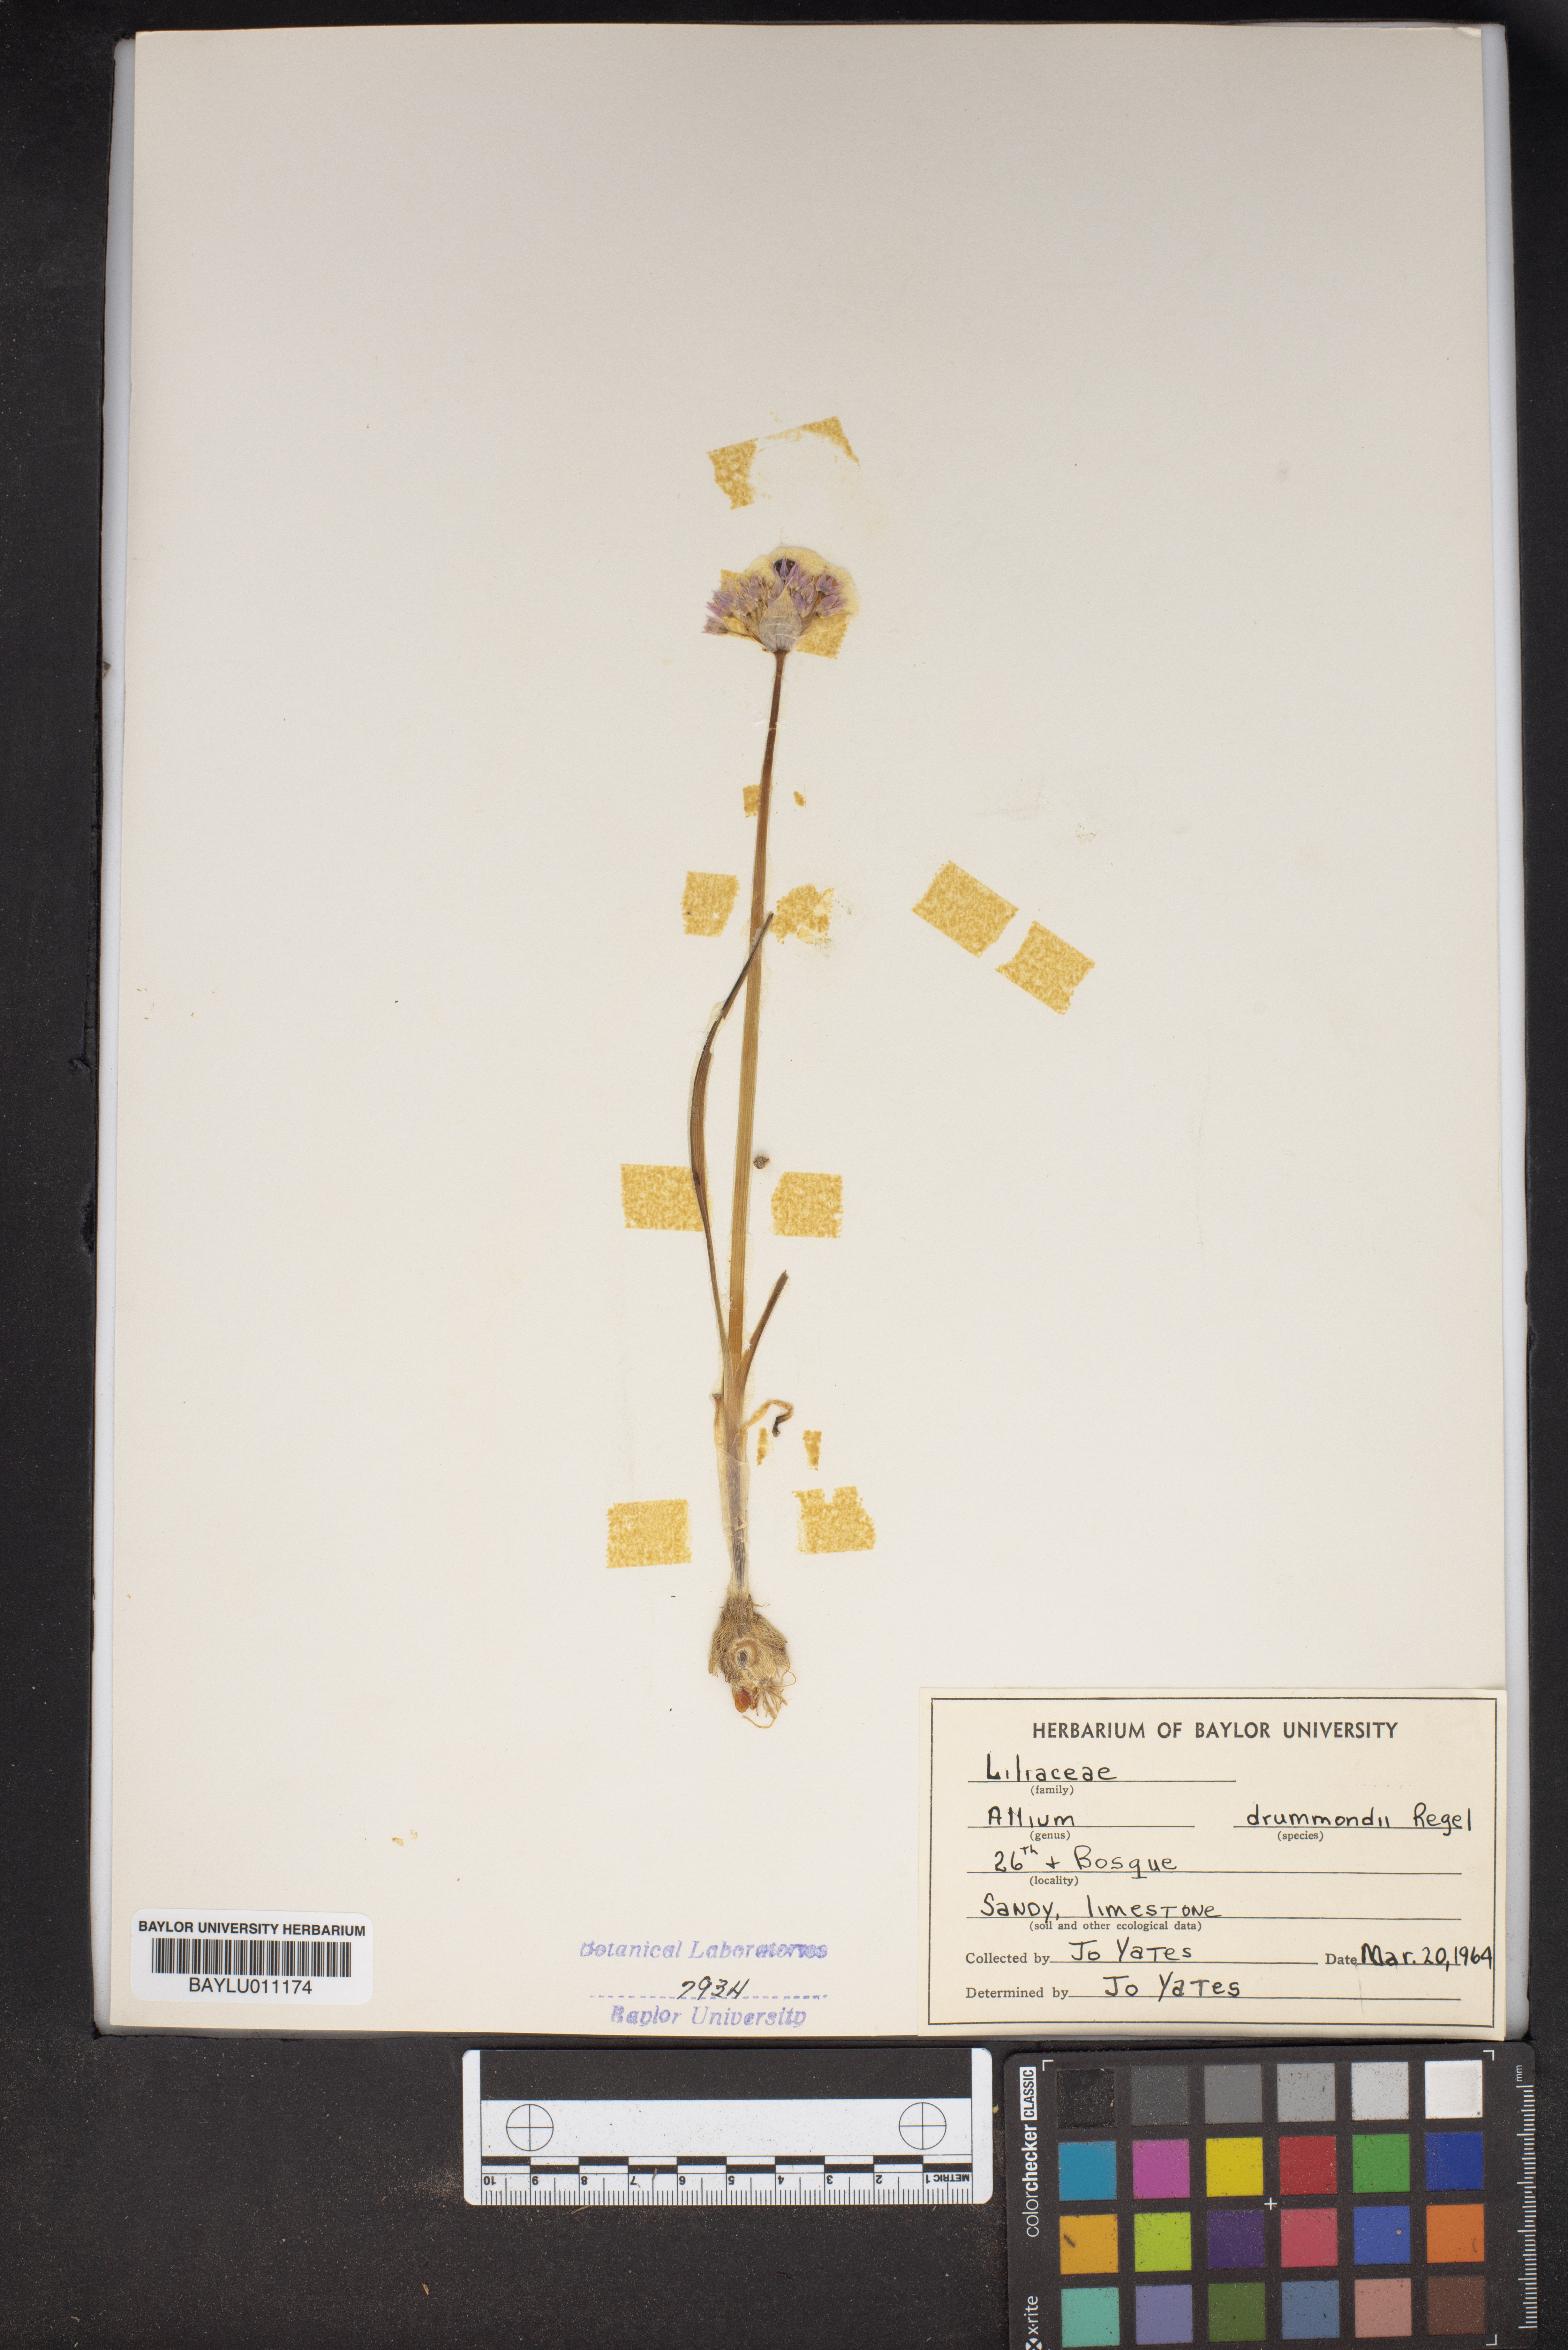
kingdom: Plantae
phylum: Tracheophyta
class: Liliopsida
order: Asparagales
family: Amaryllidaceae
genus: Allium
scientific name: Allium drummondii
